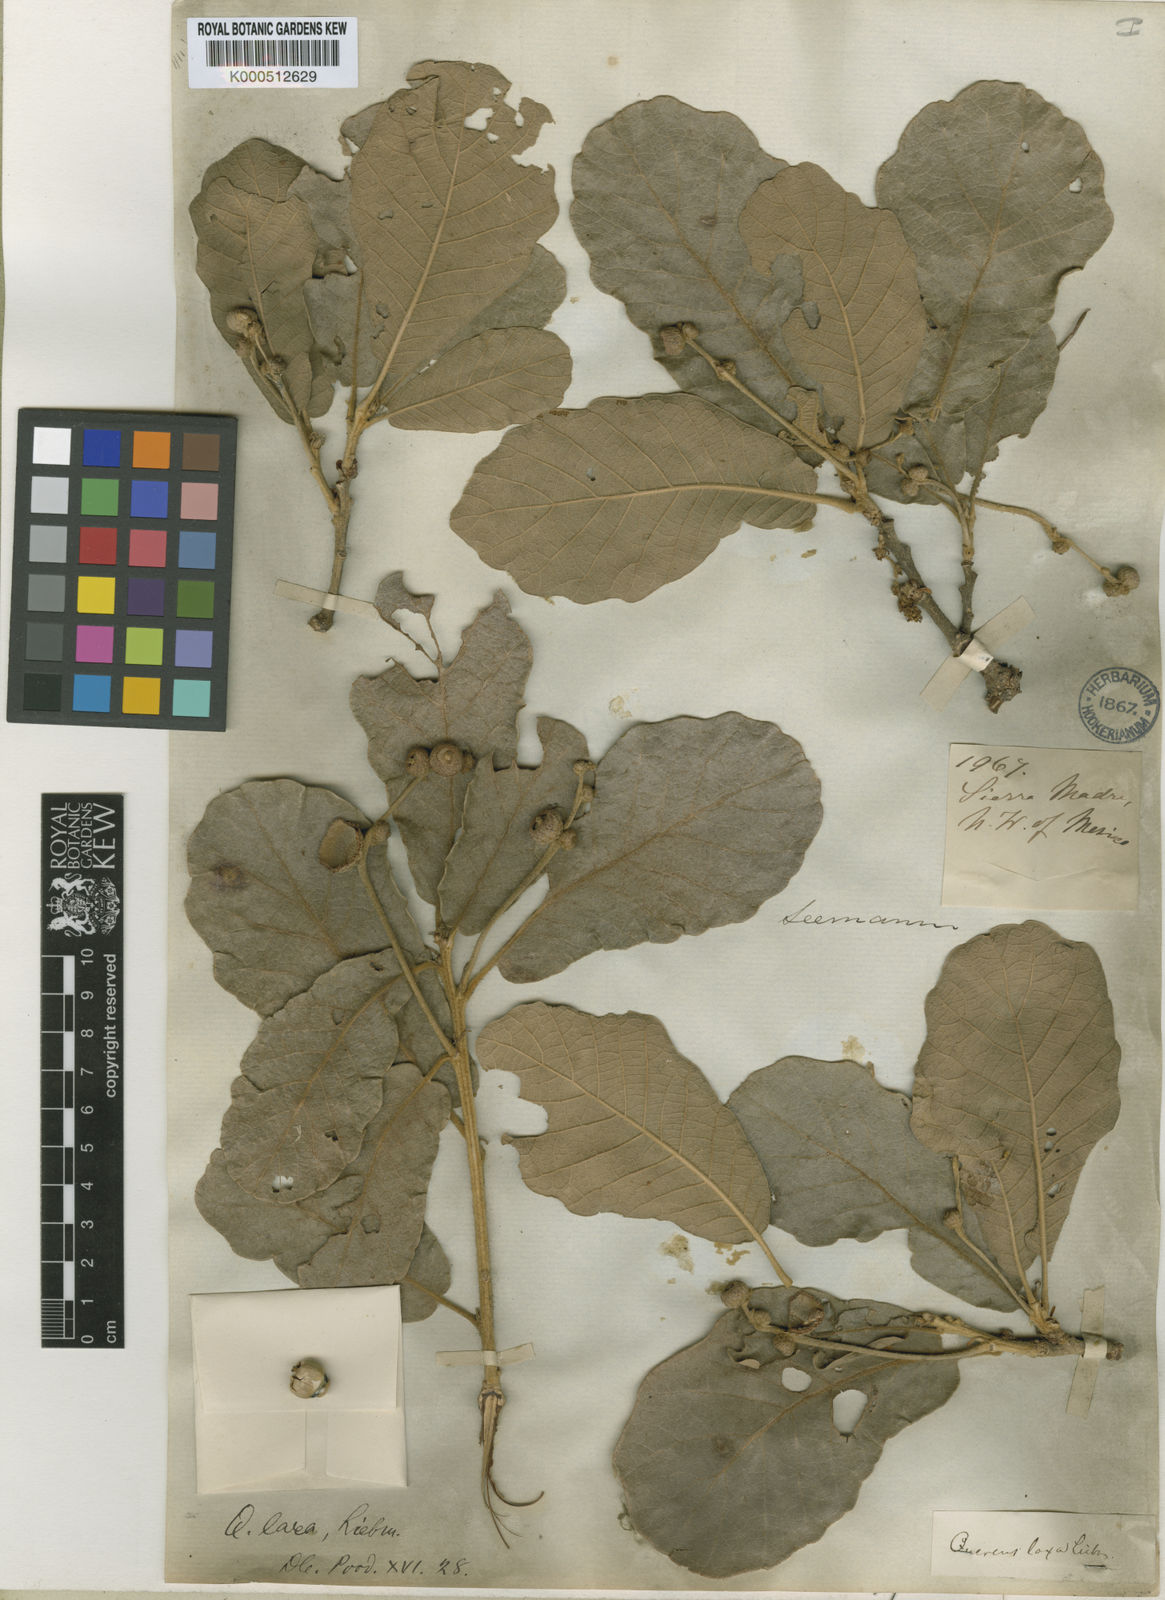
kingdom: Plantae
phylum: Tracheophyta
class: Magnoliopsida
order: Fagales
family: Fagaceae
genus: Quercus
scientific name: Quercus xylina
